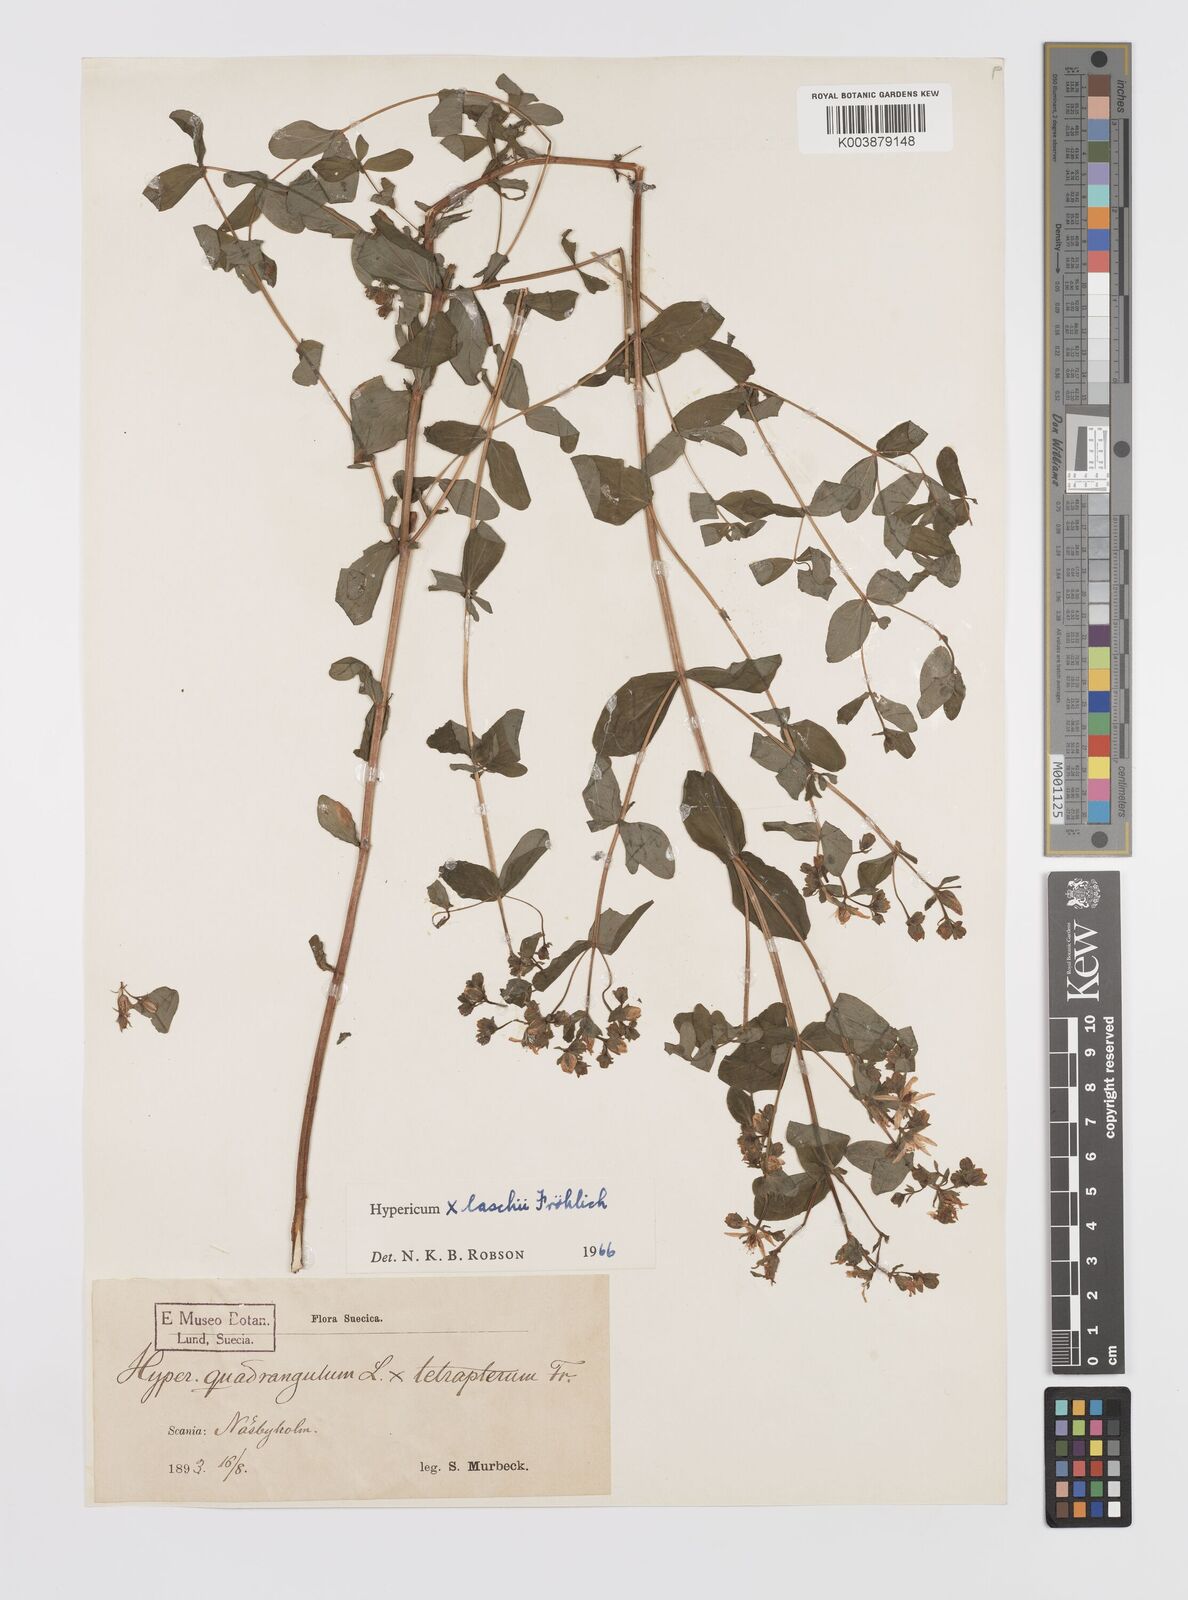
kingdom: Plantae
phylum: Tracheophyta
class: Magnoliopsida
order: Malpighiales
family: Hypericaceae
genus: Hypericum
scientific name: Hypericum laschii
